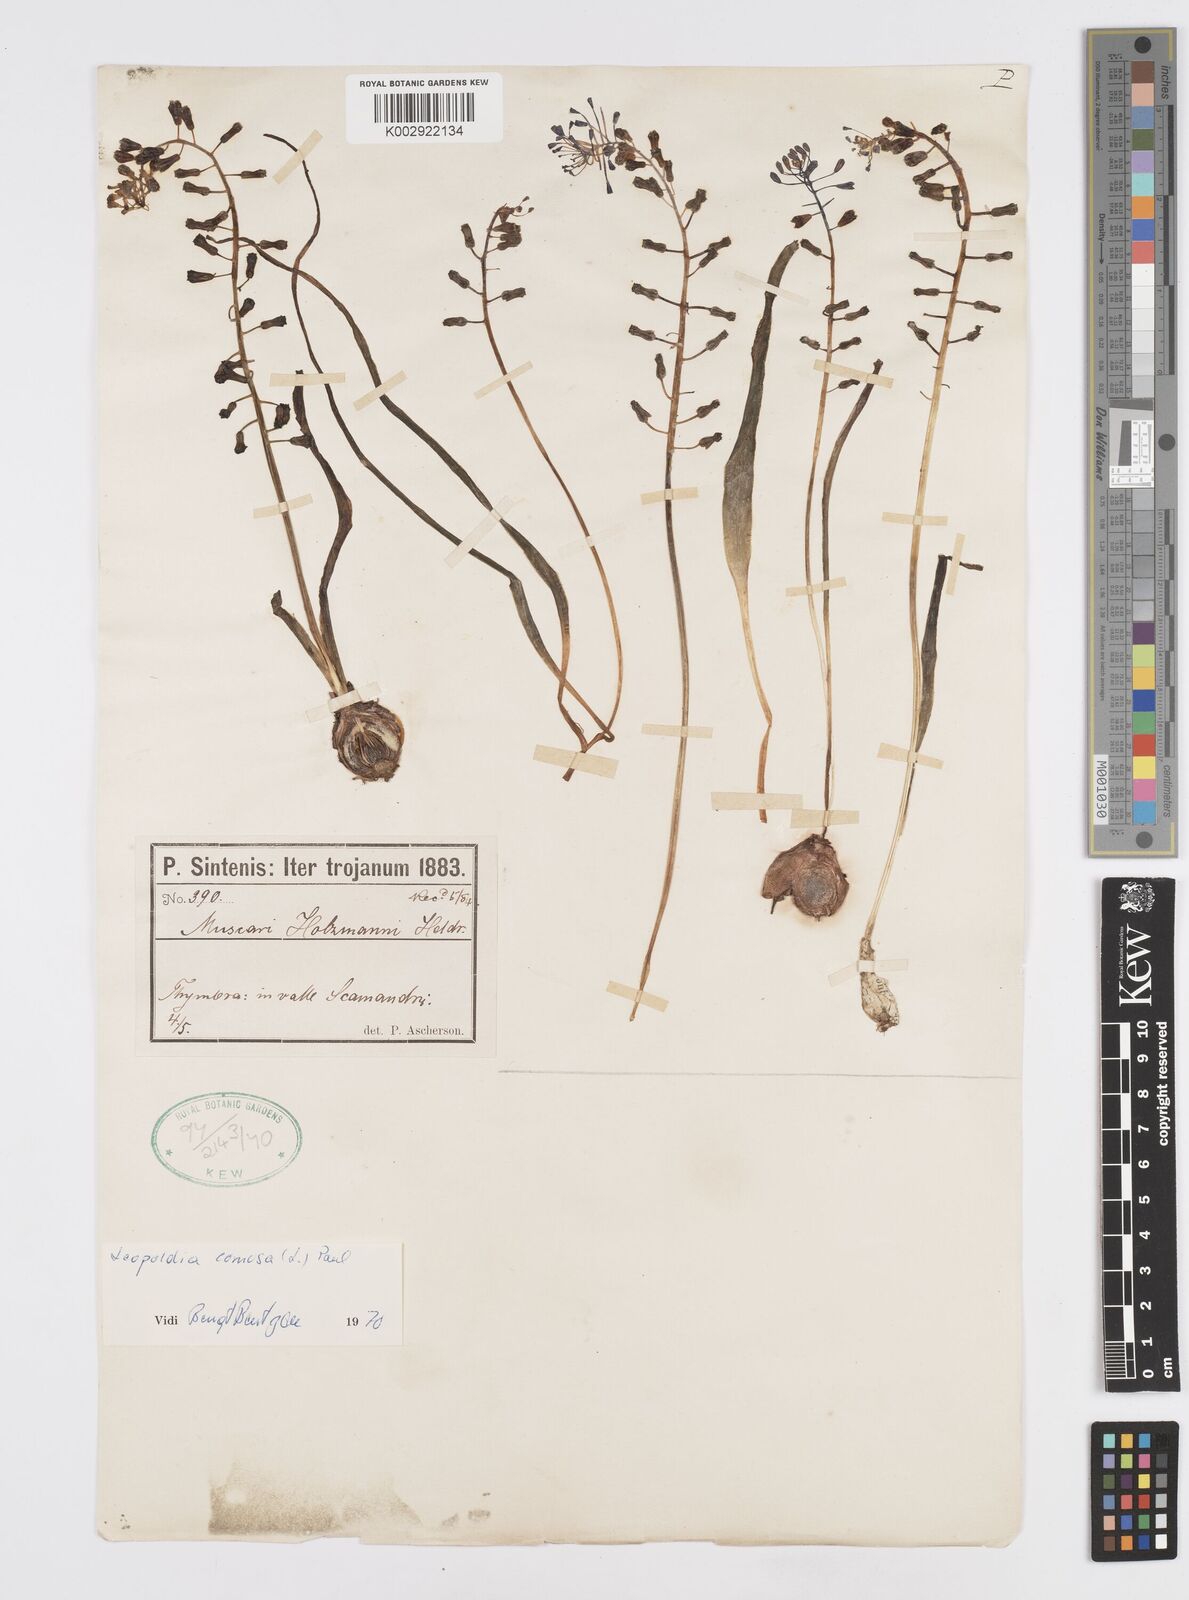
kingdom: Plantae
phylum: Tracheophyta
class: Liliopsida
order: Asparagales
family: Asparagaceae
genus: Muscari
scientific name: Muscari comosum
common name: Tassel hyacinth
